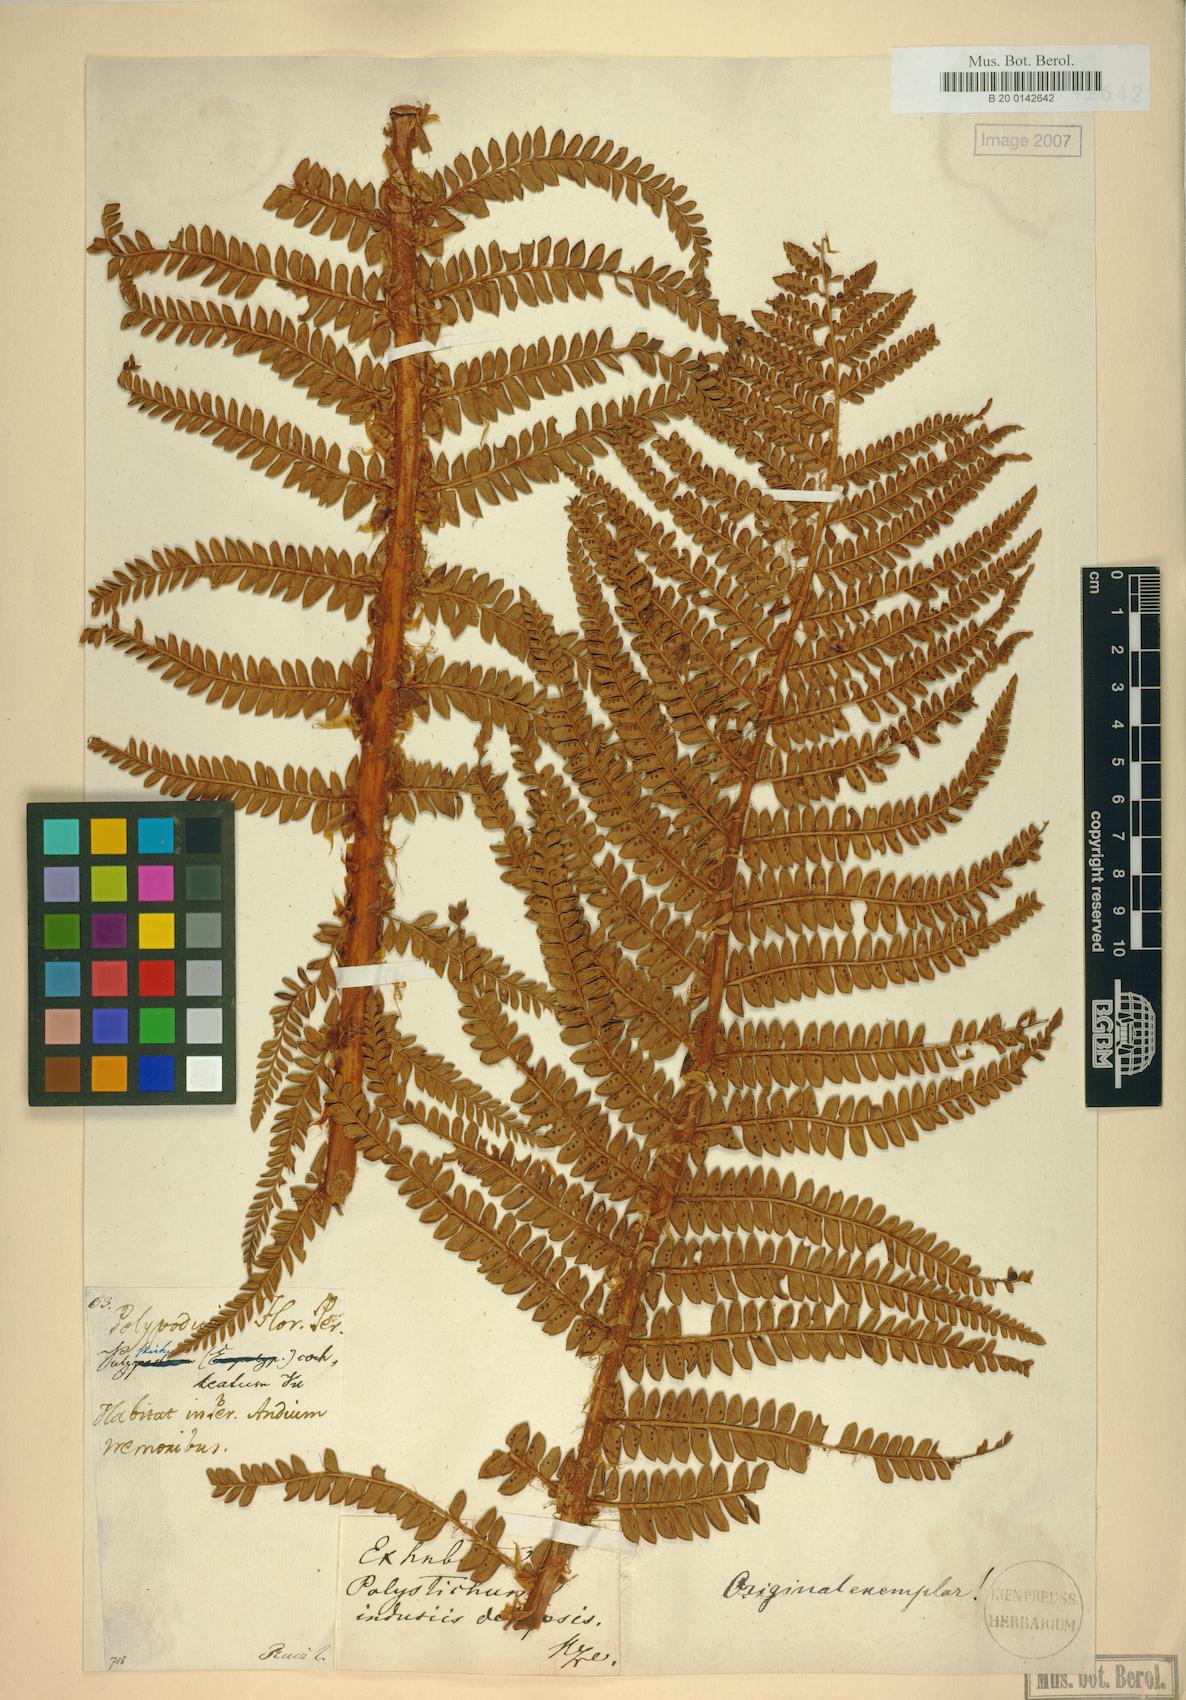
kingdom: Plantae
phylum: Tracheophyta
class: Polypodiopsida
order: Polypodiales
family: Dryopteridaceae
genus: Polystichum
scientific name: Polystichum cochleatum
